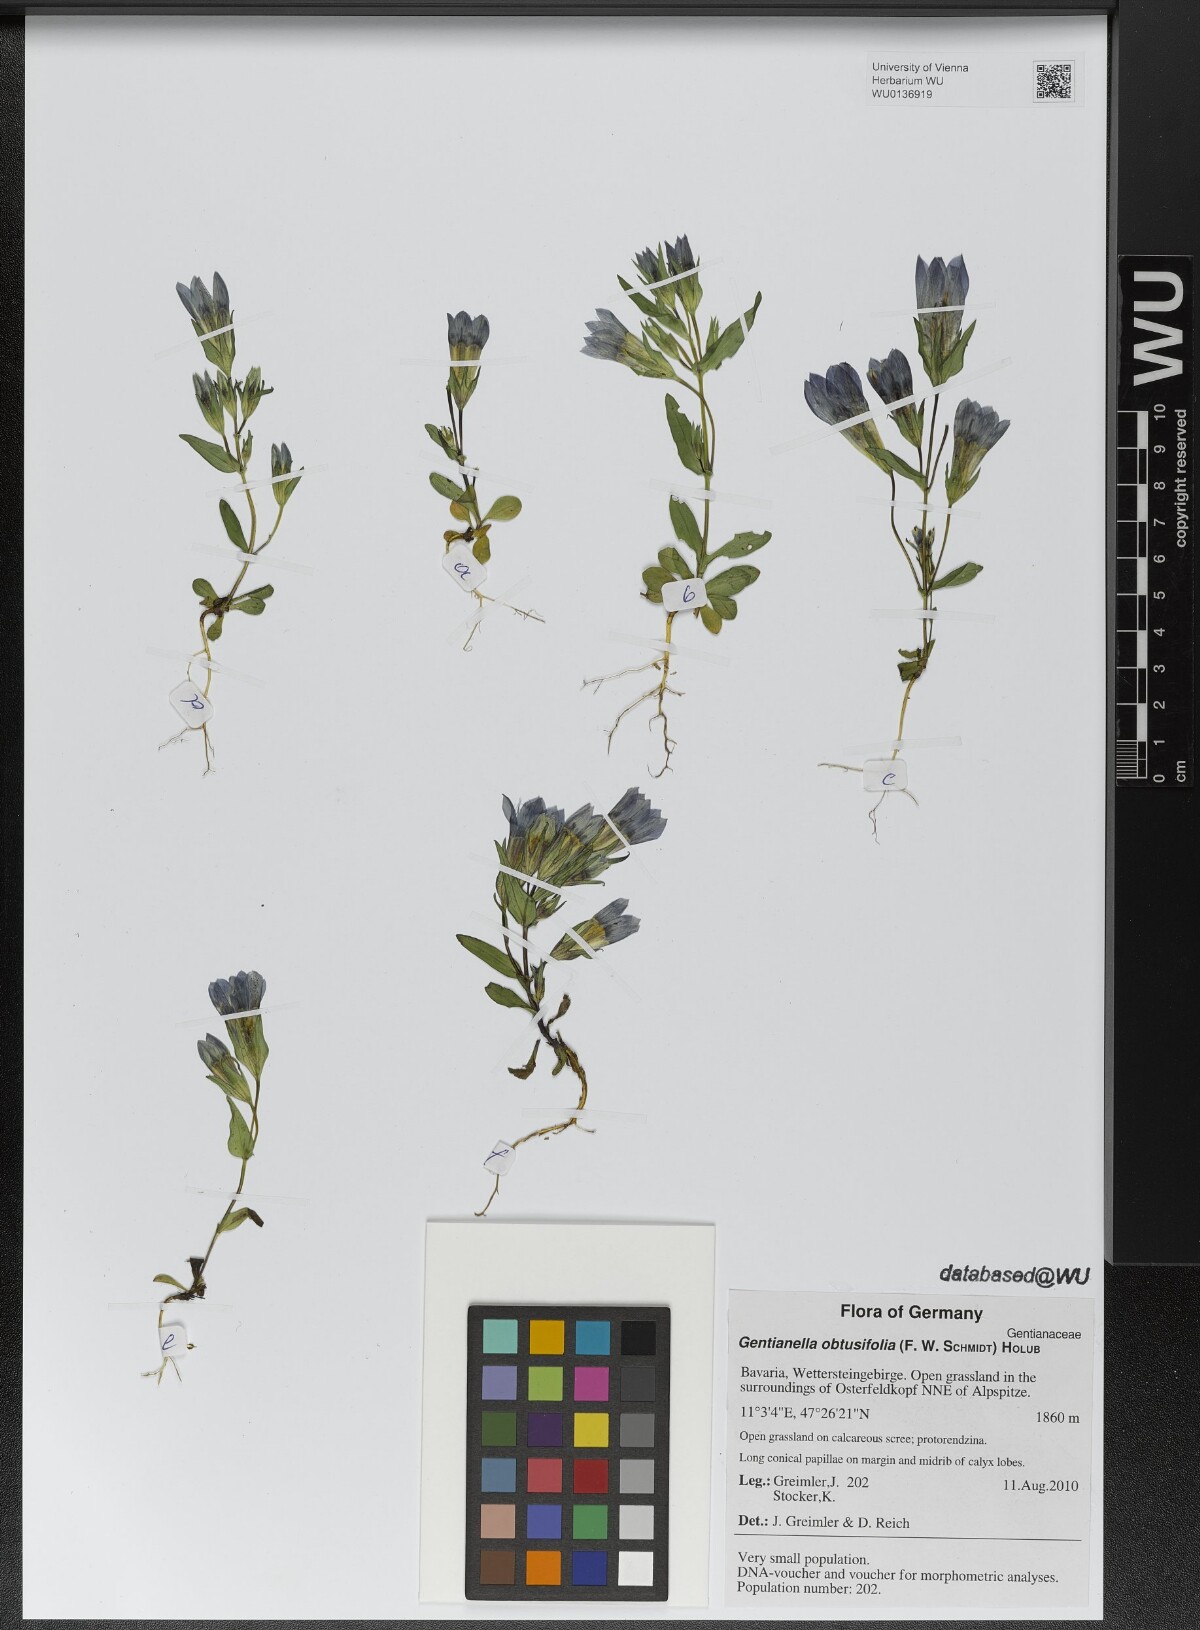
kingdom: Plantae
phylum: Tracheophyta
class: Magnoliopsida
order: Gentianales
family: Gentianaceae
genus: Gentianella
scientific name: Gentianella obtusifolia
